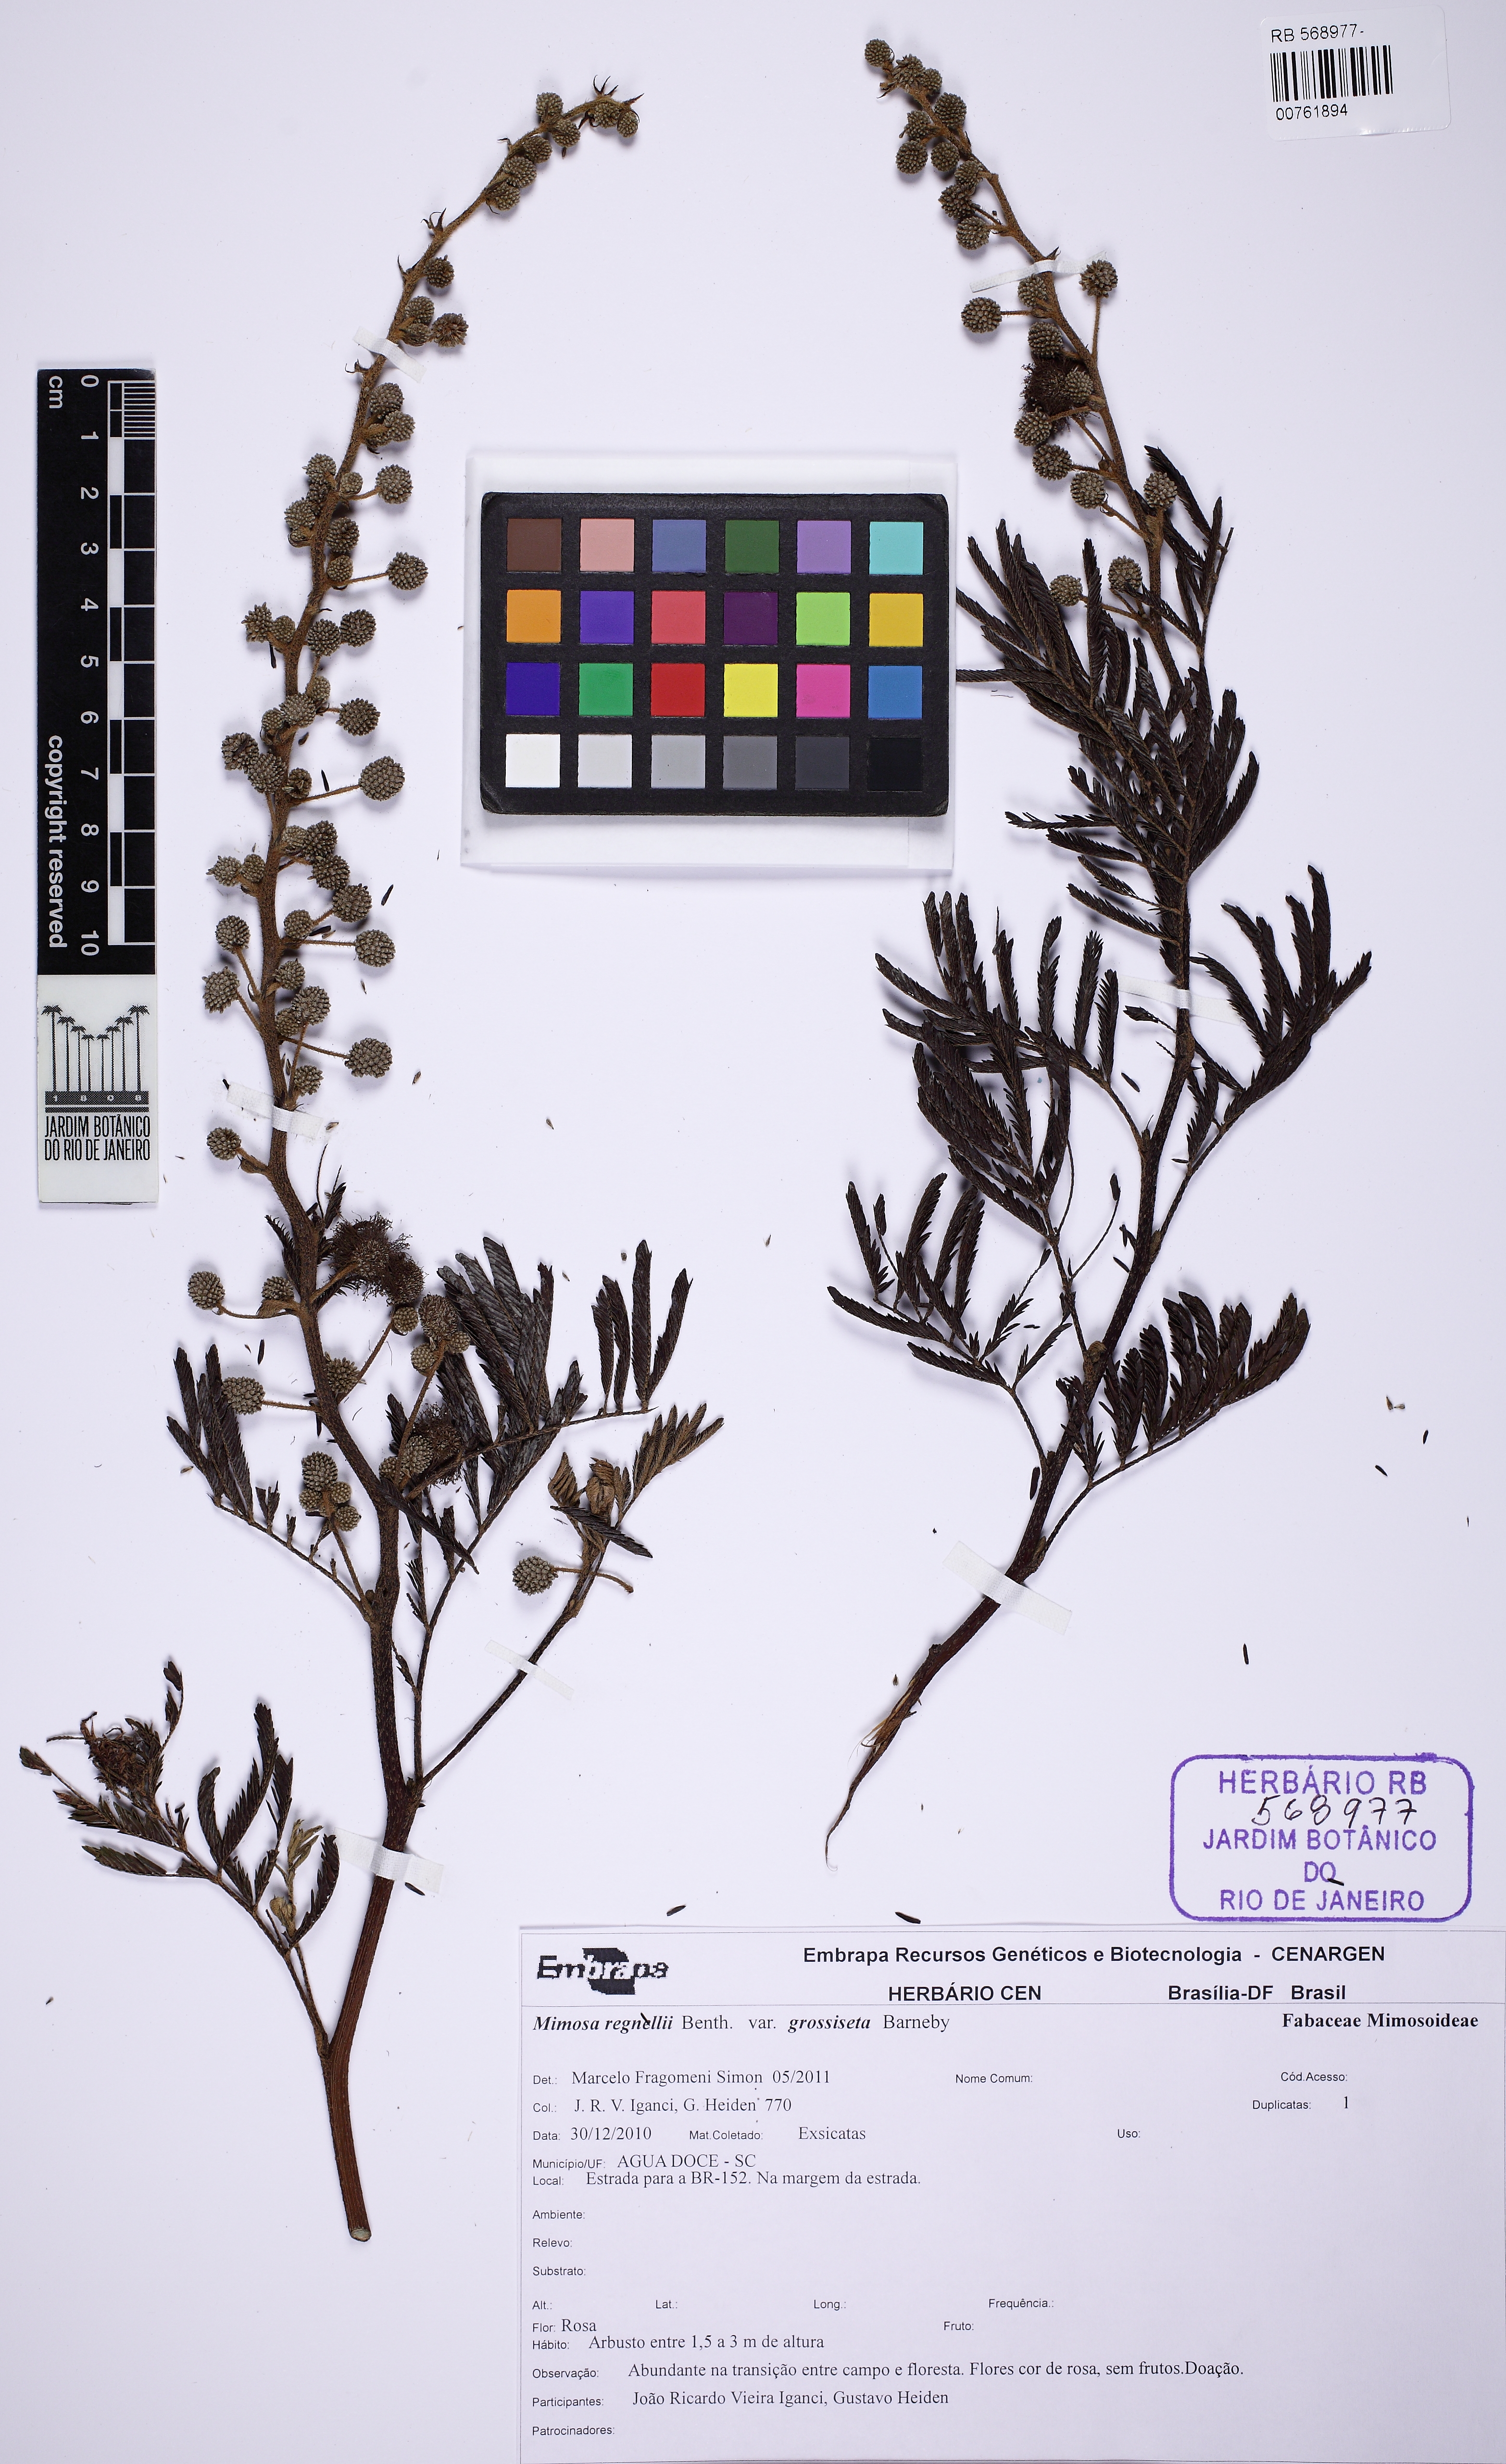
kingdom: Plantae
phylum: Tracheophyta
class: Magnoliopsida
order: Fabales
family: Fabaceae
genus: Mimosa
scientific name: Mimosa regnellii
